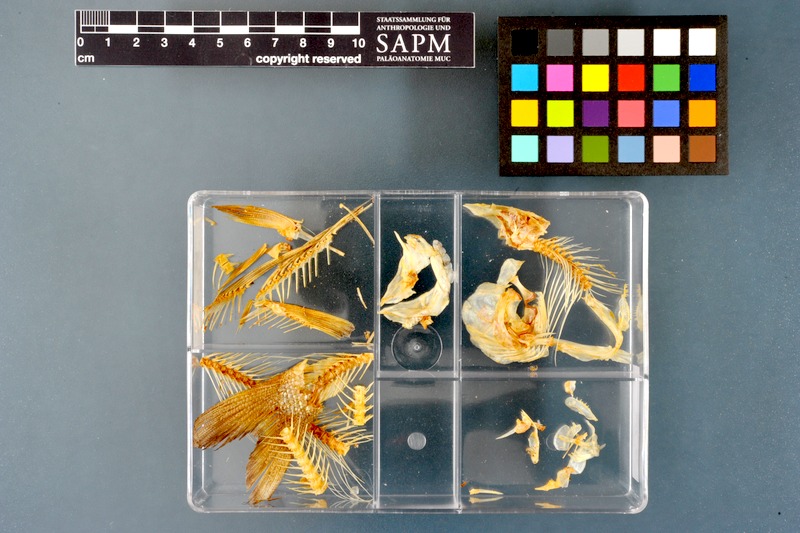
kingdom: Animalia
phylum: Chordata
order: Salmoniformes
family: Salmonidae
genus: Thymallus
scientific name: Thymallus thymallus
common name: Grayling
